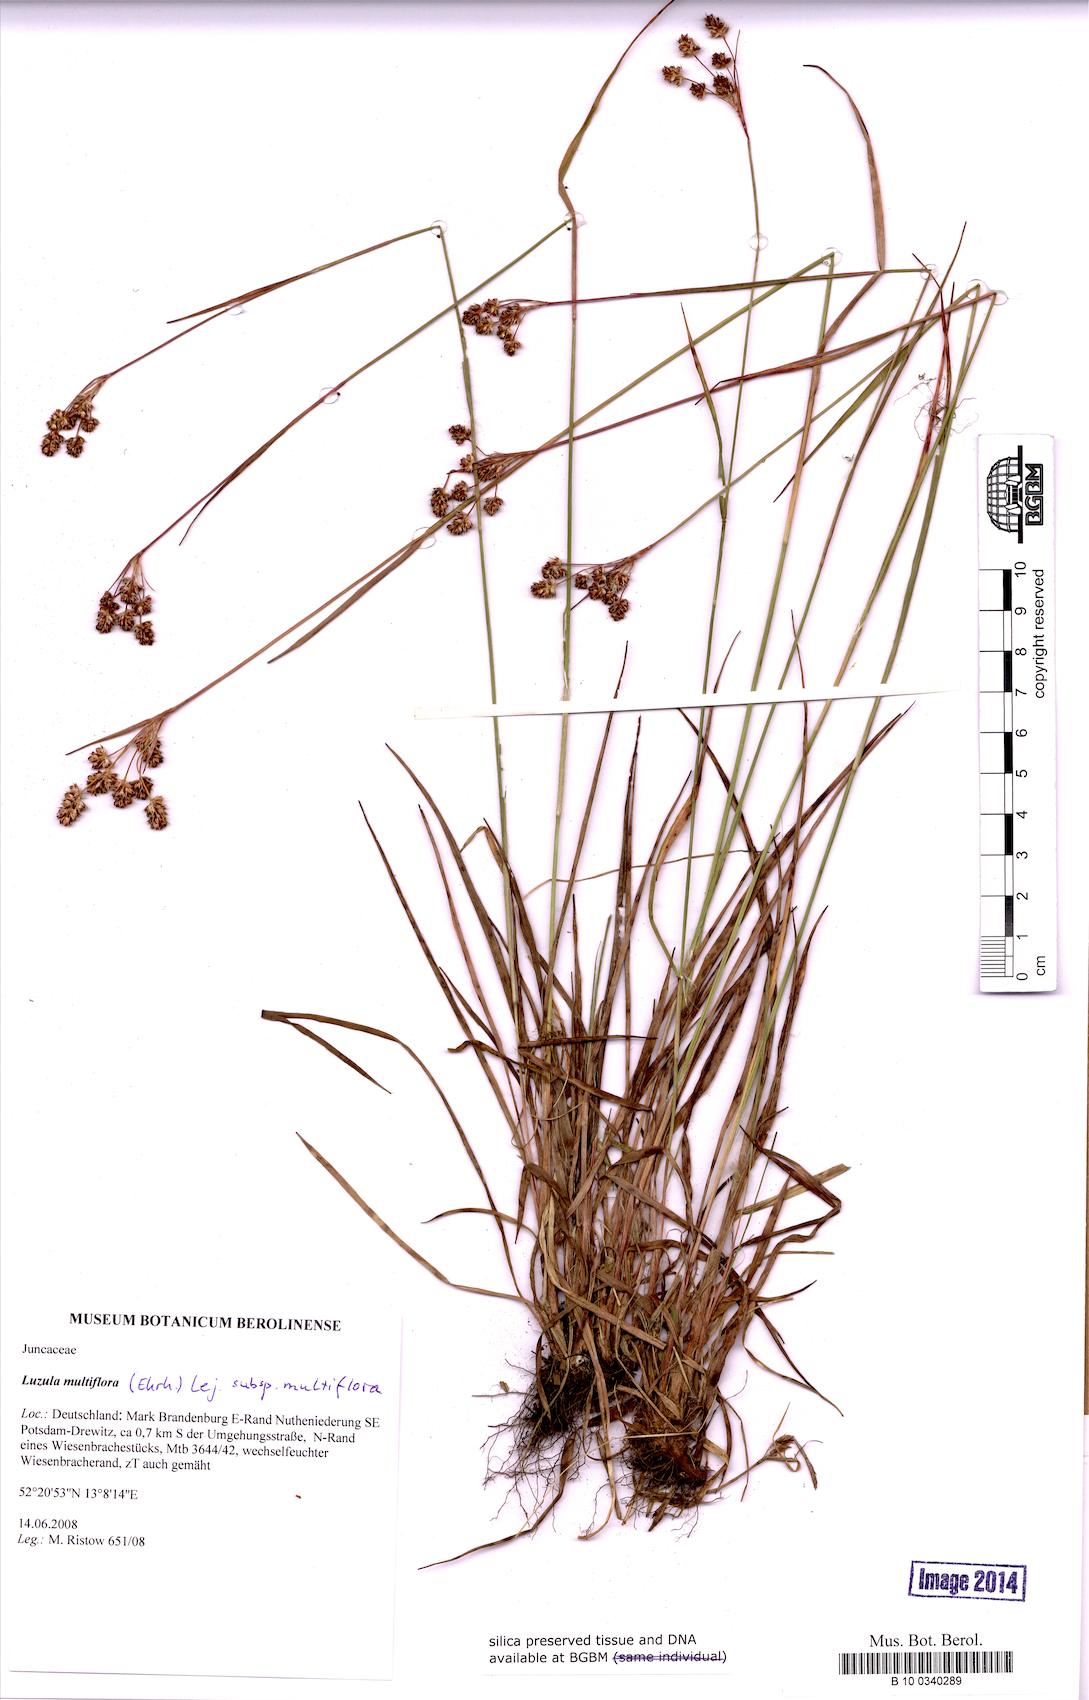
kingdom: Plantae
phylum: Tracheophyta
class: Liliopsida
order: Poales
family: Juncaceae
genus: Luzula
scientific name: Luzula multiflora
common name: Heath wood-rush
